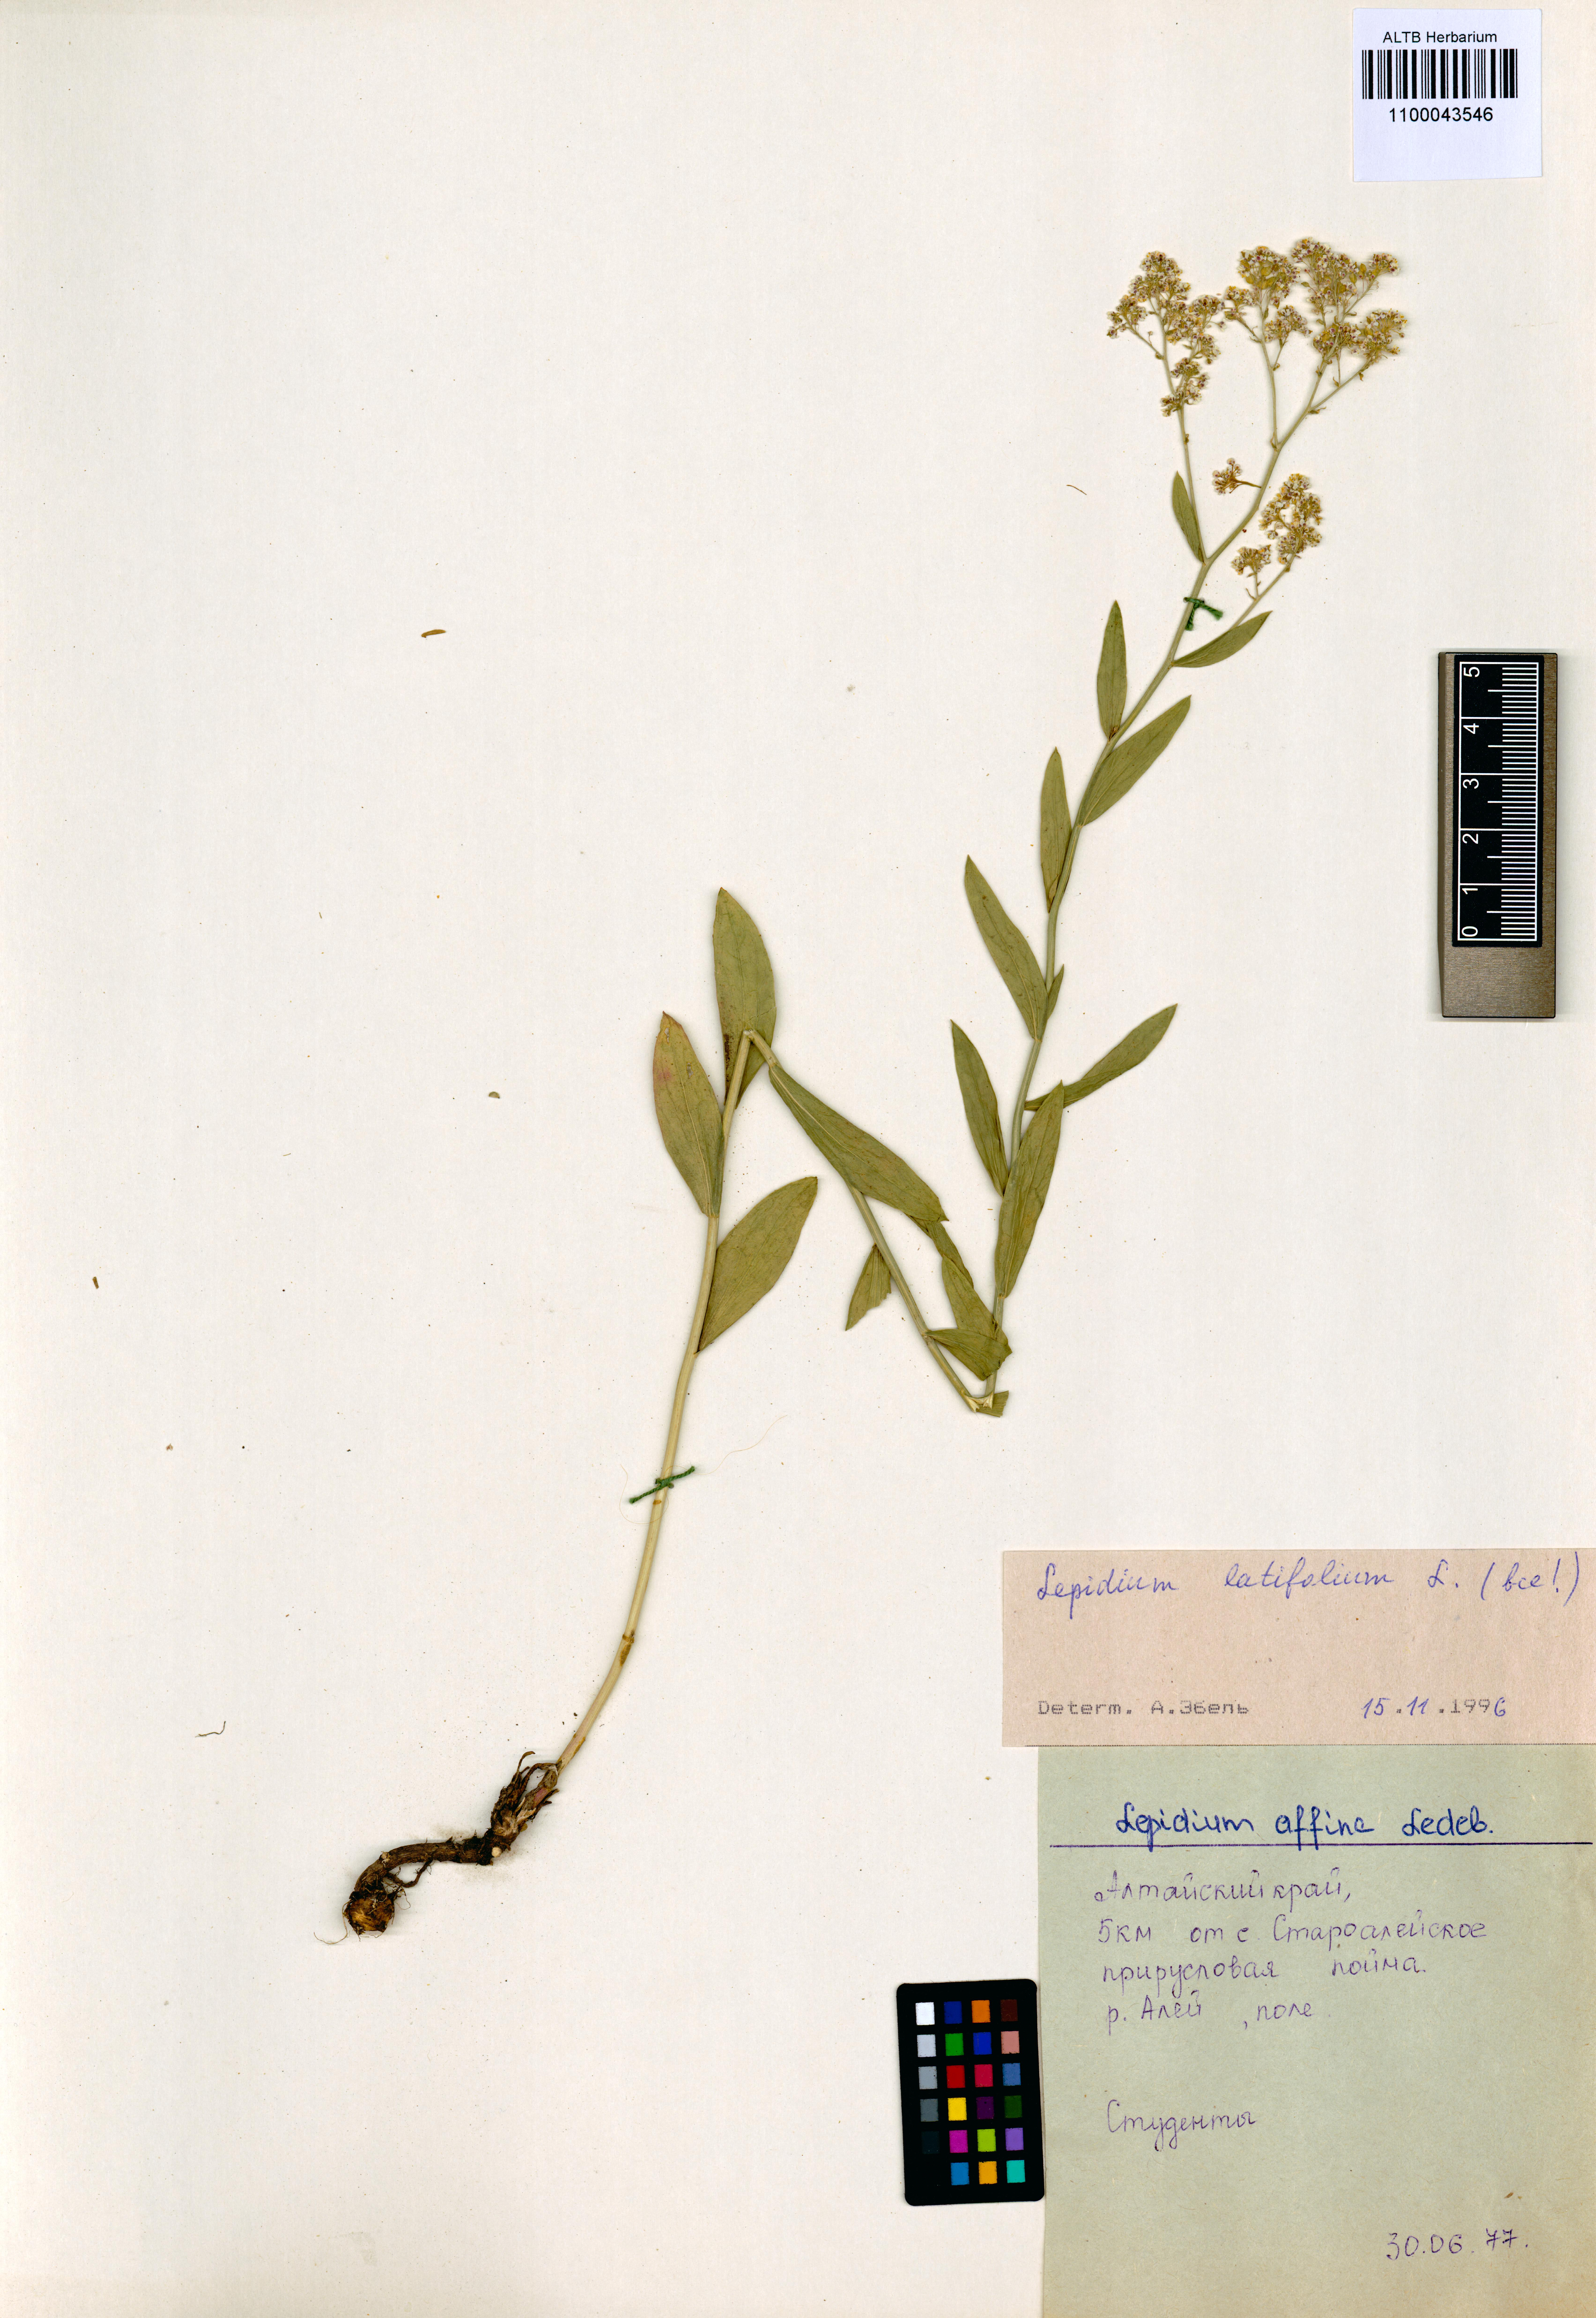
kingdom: Plantae
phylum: Tracheophyta
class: Magnoliopsida
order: Brassicales
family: Brassicaceae
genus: Lepidium
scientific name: Lepidium latifolium
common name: Dittander
